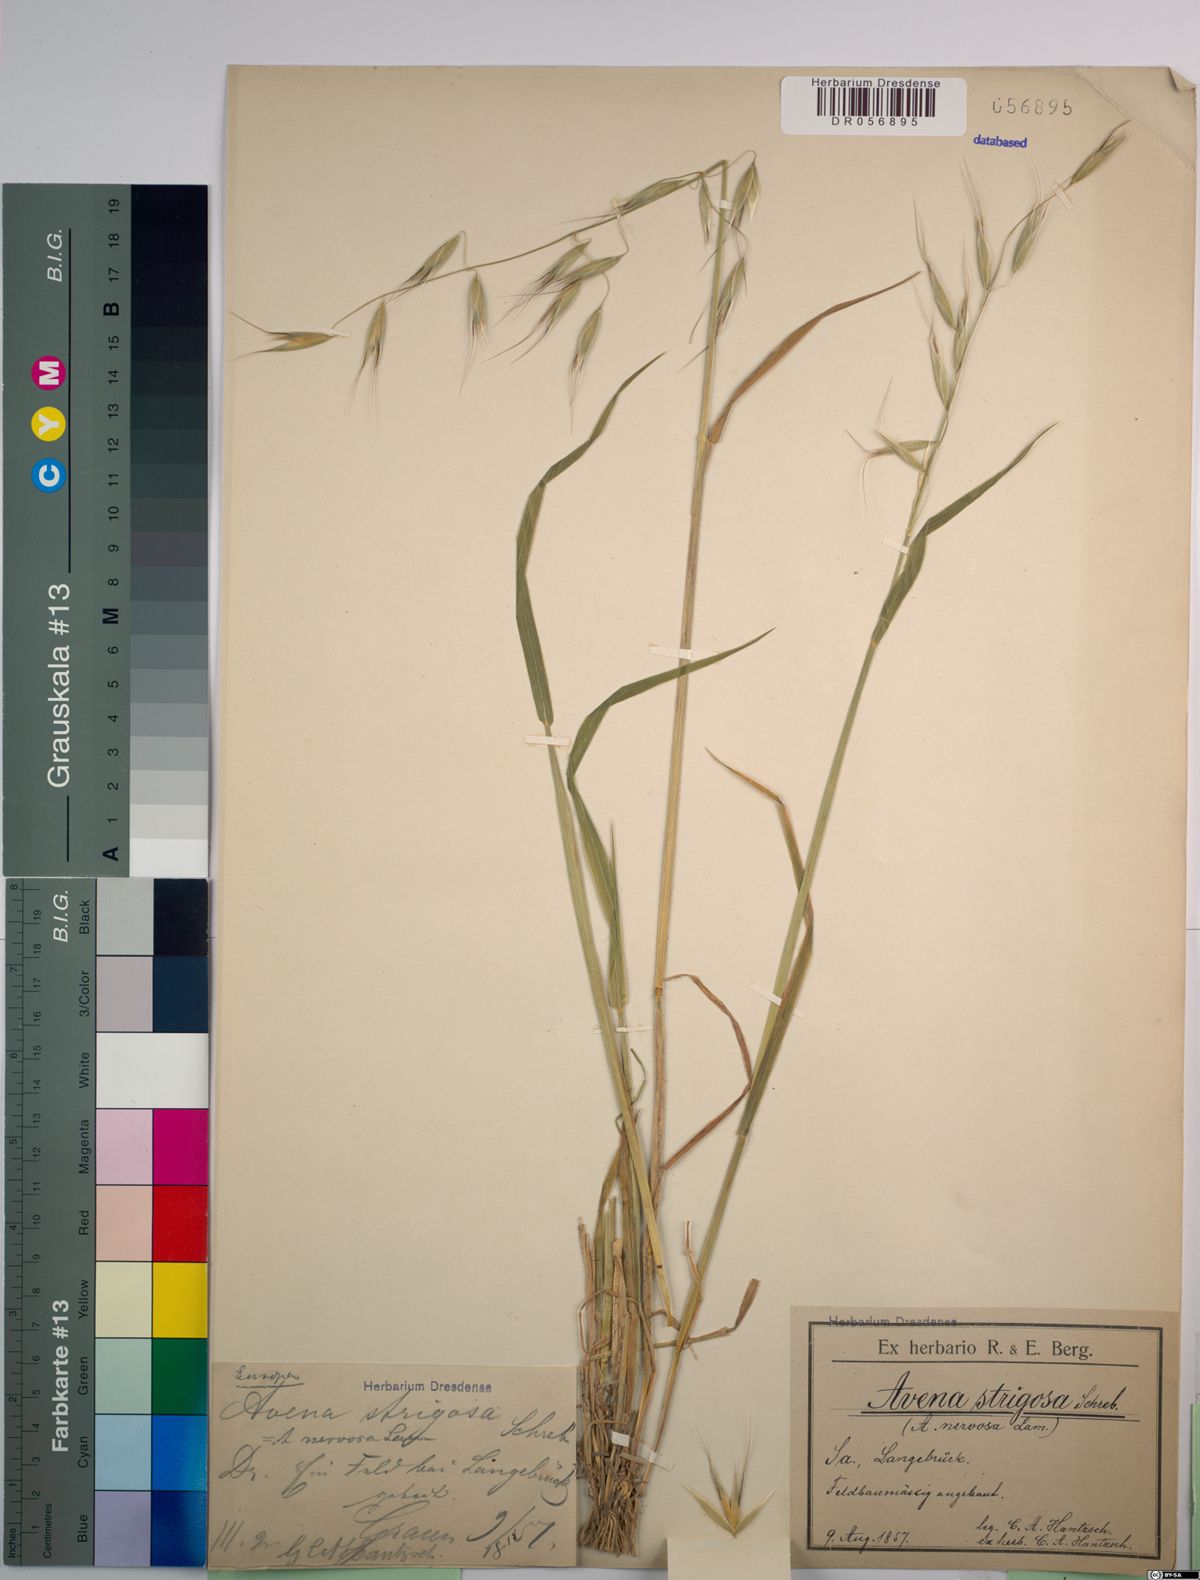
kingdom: Plantae
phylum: Tracheophyta
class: Liliopsida
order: Poales
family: Poaceae
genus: Avena
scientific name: Avena strigosa
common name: Bristle oat
